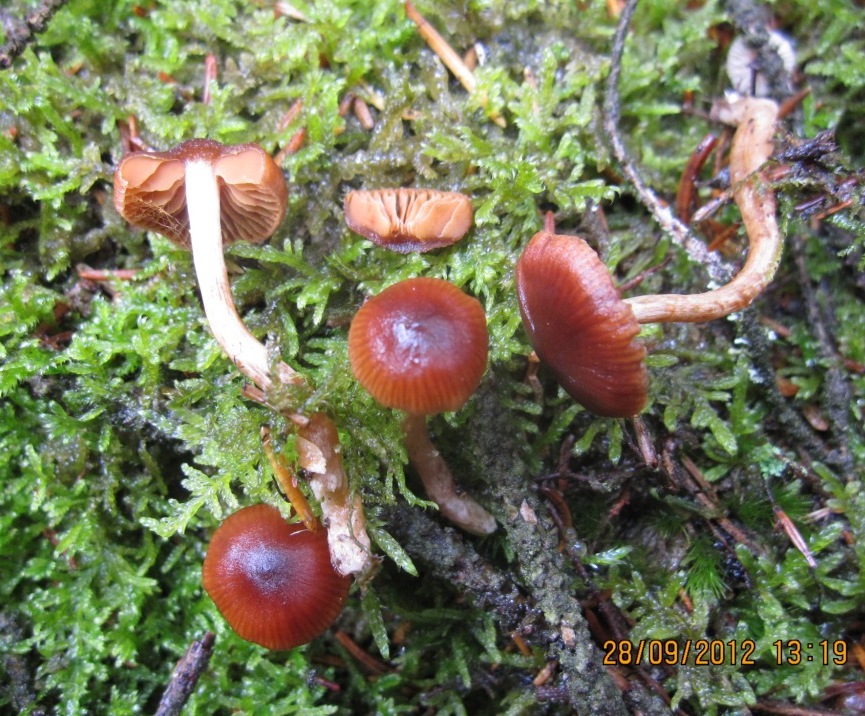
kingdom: Fungi
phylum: Basidiomycota
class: Agaricomycetes
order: Agaricales
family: Cortinariaceae
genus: Cortinarius
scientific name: Cortinarius
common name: ræve-slørhat
